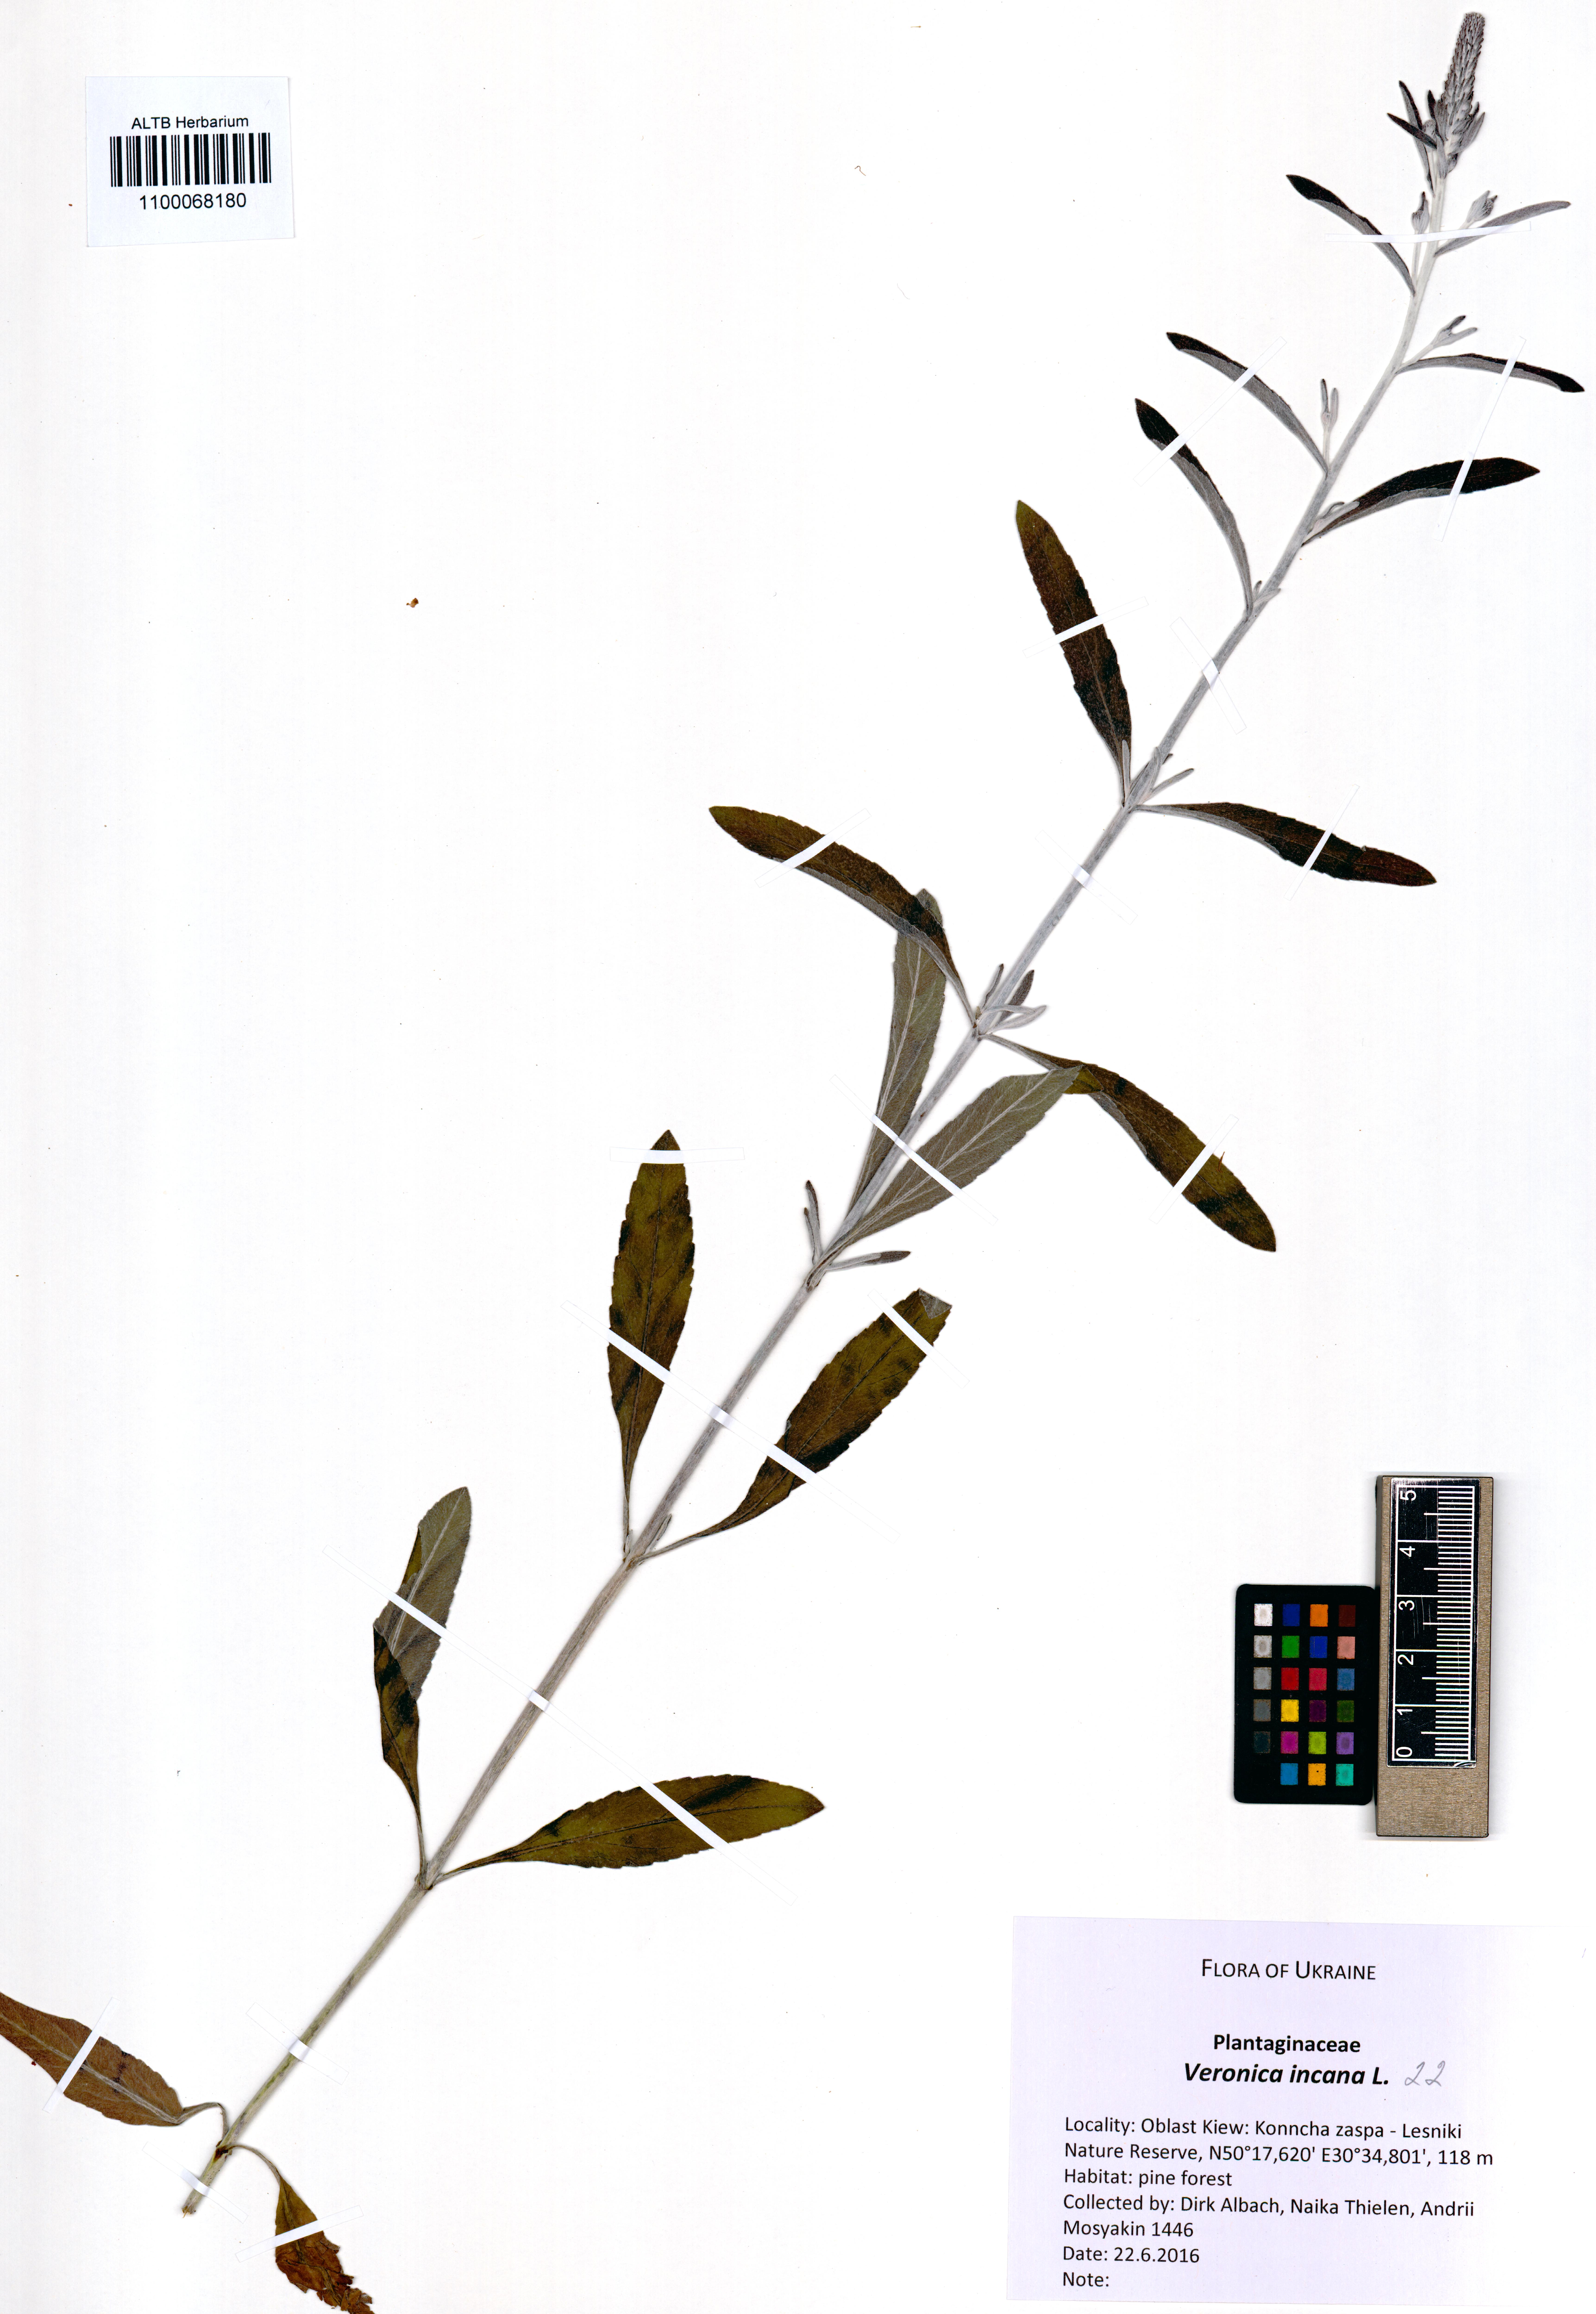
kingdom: Plantae
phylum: Tracheophyta
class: Magnoliopsida
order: Lamiales
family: Plantaginaceae
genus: Veronica
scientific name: Veronica incana
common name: Silver speedwell
